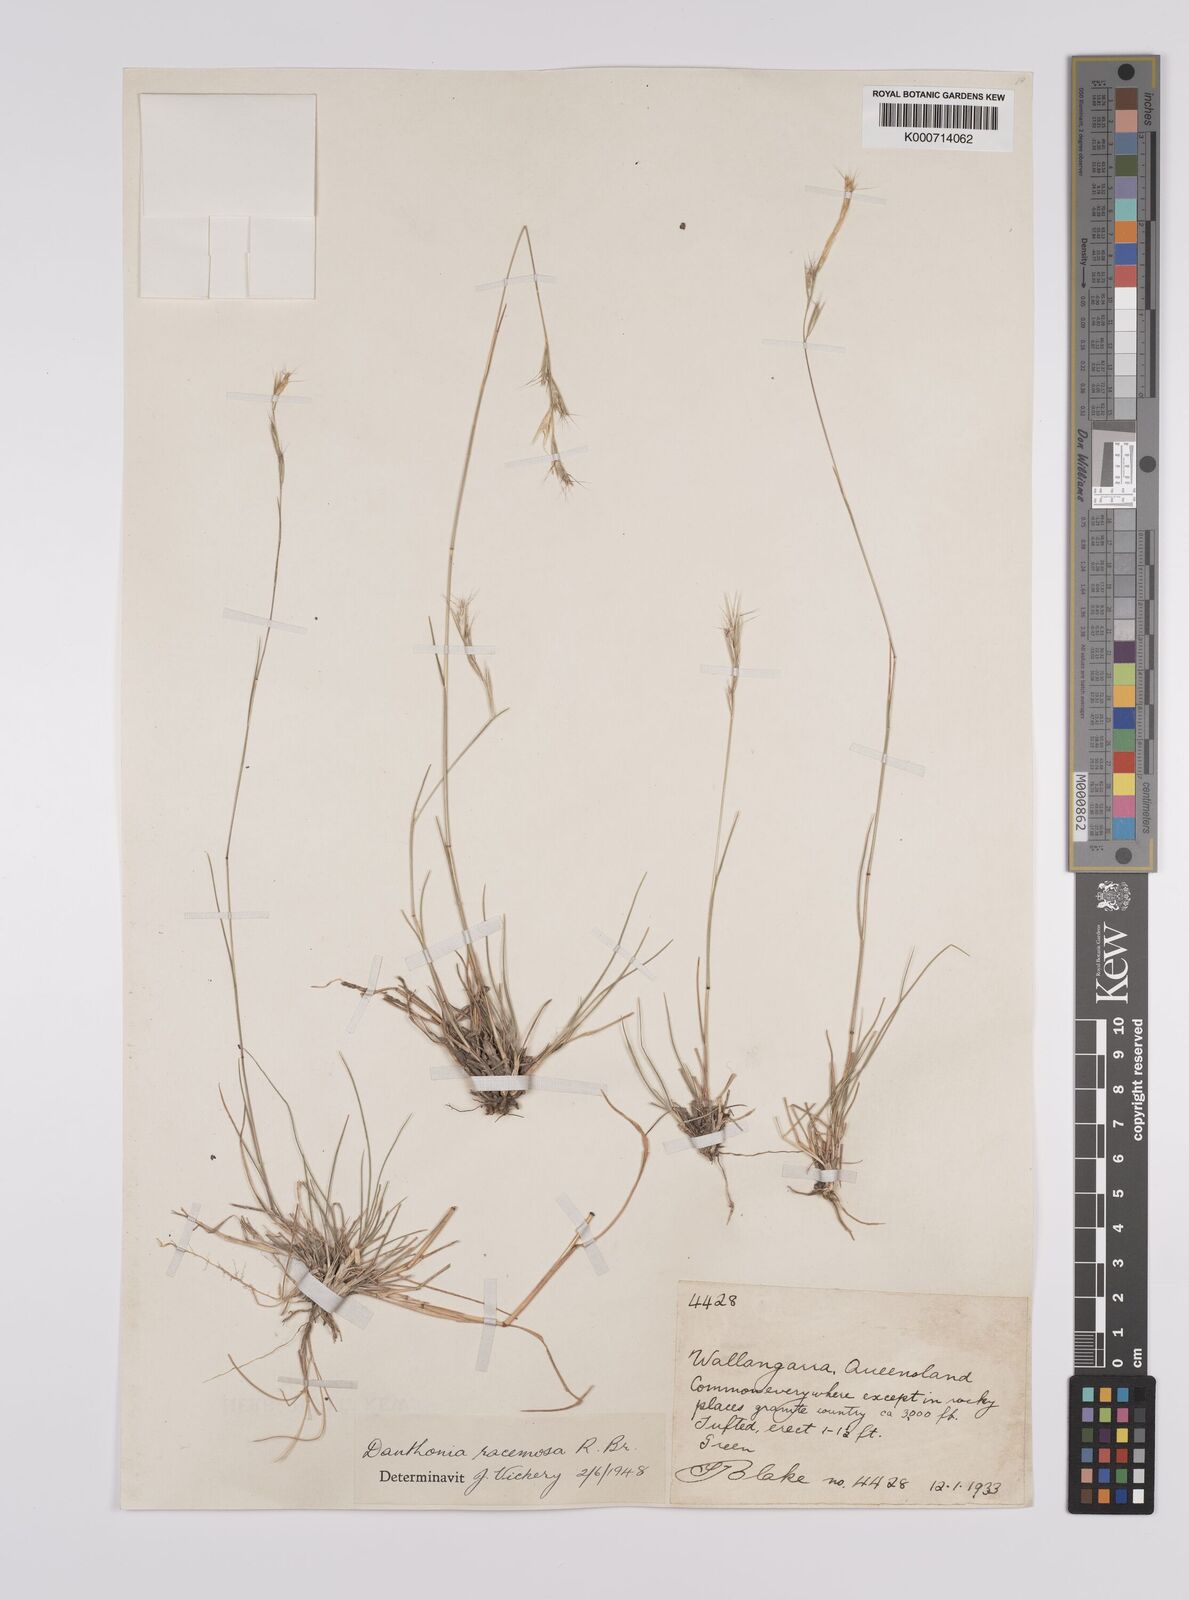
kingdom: Plantae
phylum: Tracheophyta
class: Liliopsida
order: Poales
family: Poaceae
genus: Rytidosperma
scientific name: Rytidosperma racemosum
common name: Wallaby-grass
